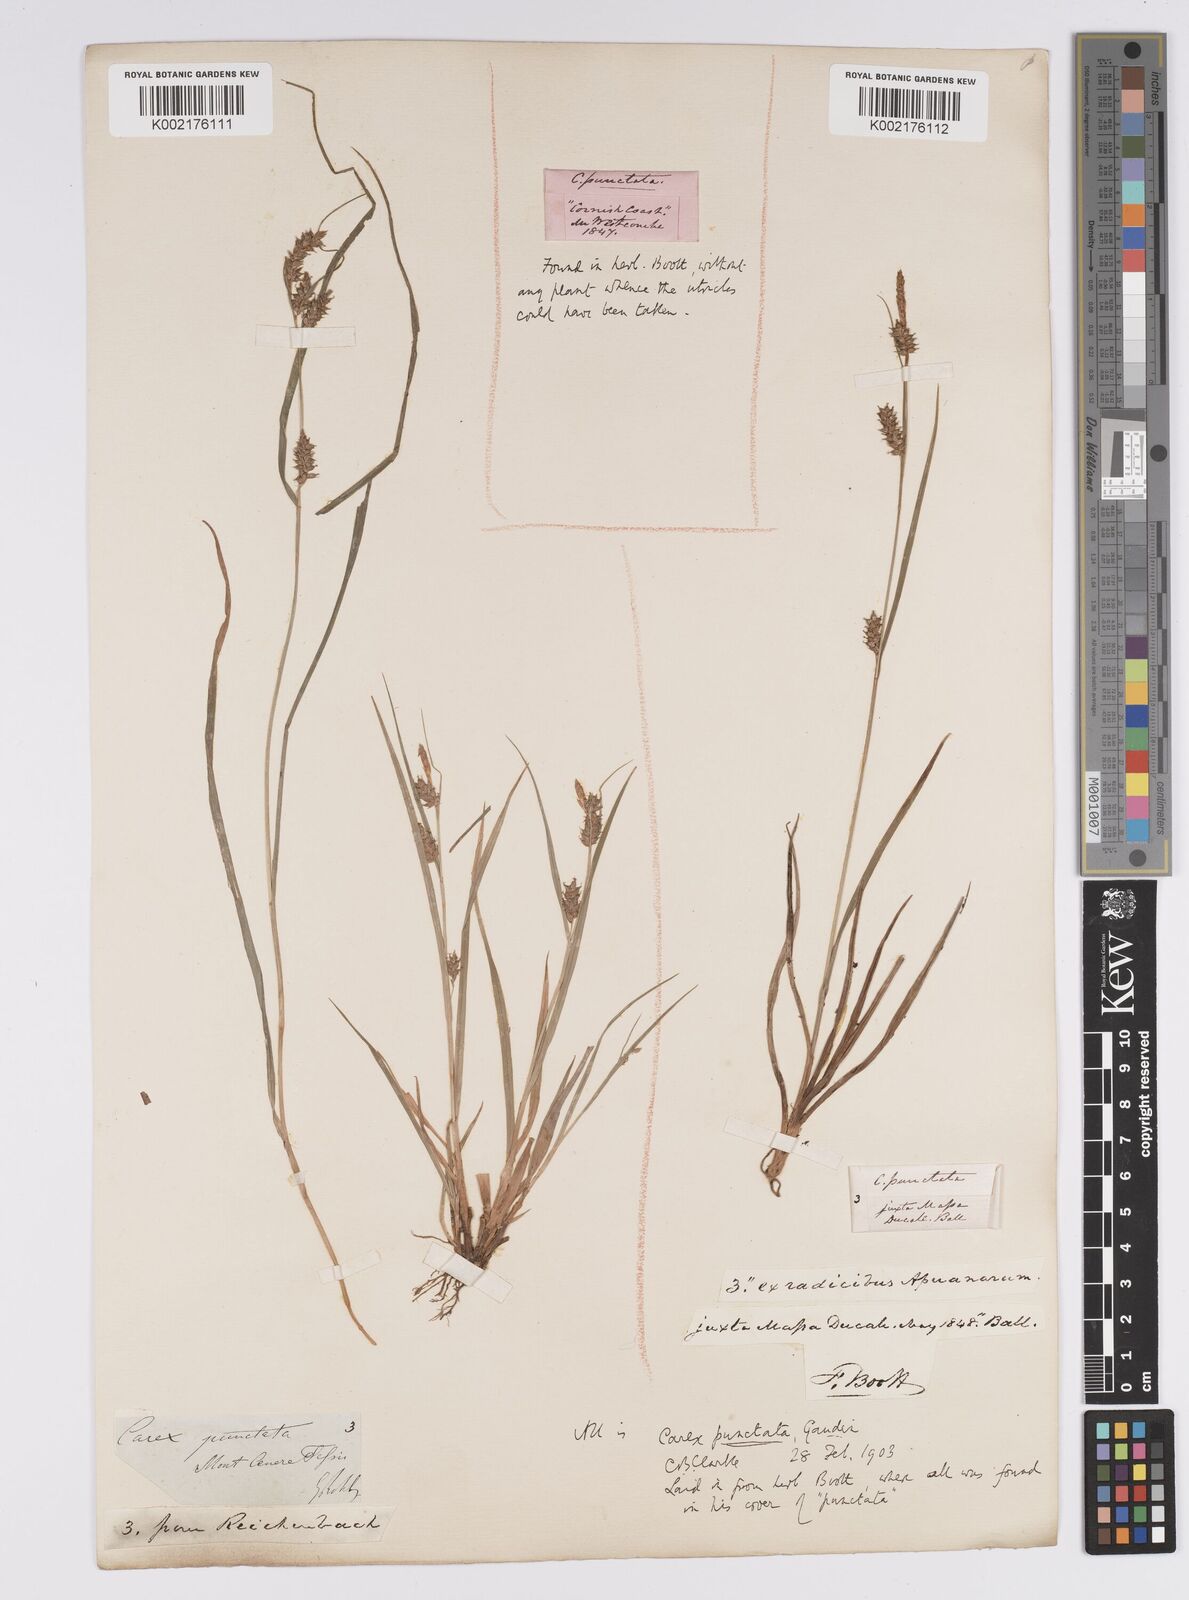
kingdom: Plantae
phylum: Tracheophyta
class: Liliopsida
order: Poales
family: Cyperaceae
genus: Carex
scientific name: Carex punctata
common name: Dotted sedge
